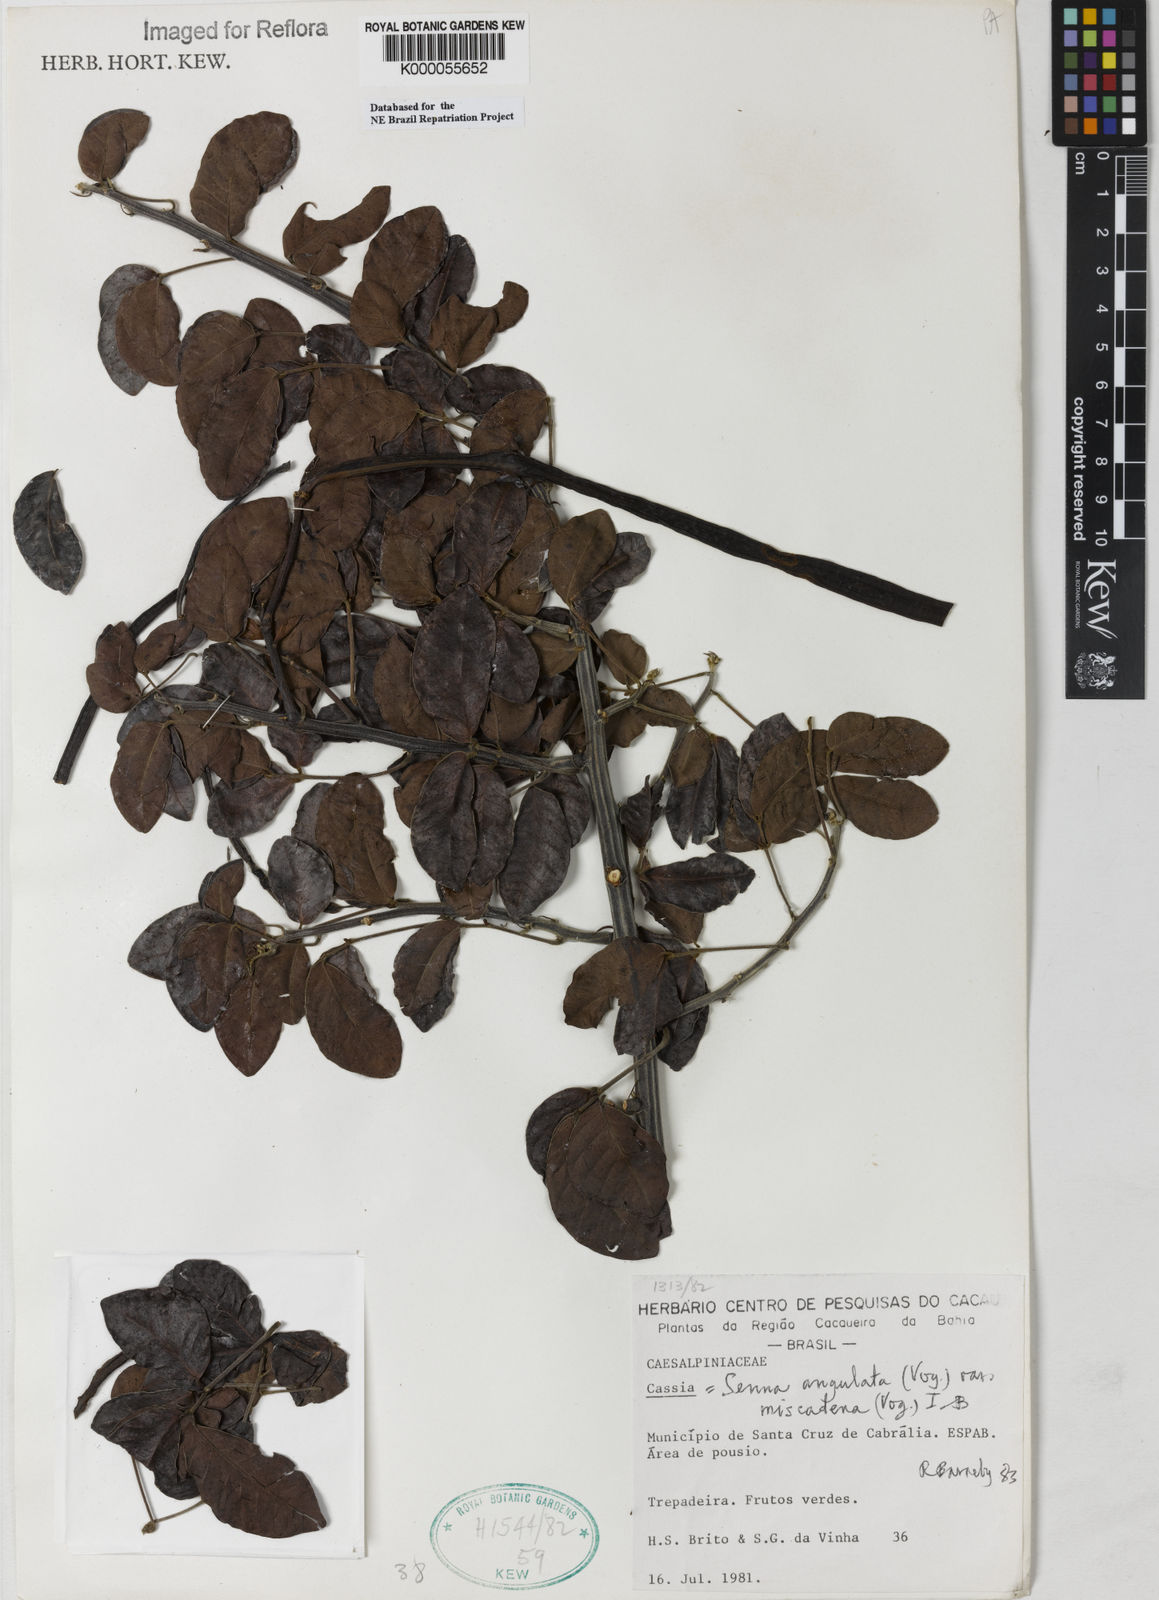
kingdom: Plantae
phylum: Tracheophyta
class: Magnoliopsida
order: Fabales
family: Fabaceae
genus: Senna
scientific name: Senna angulata
